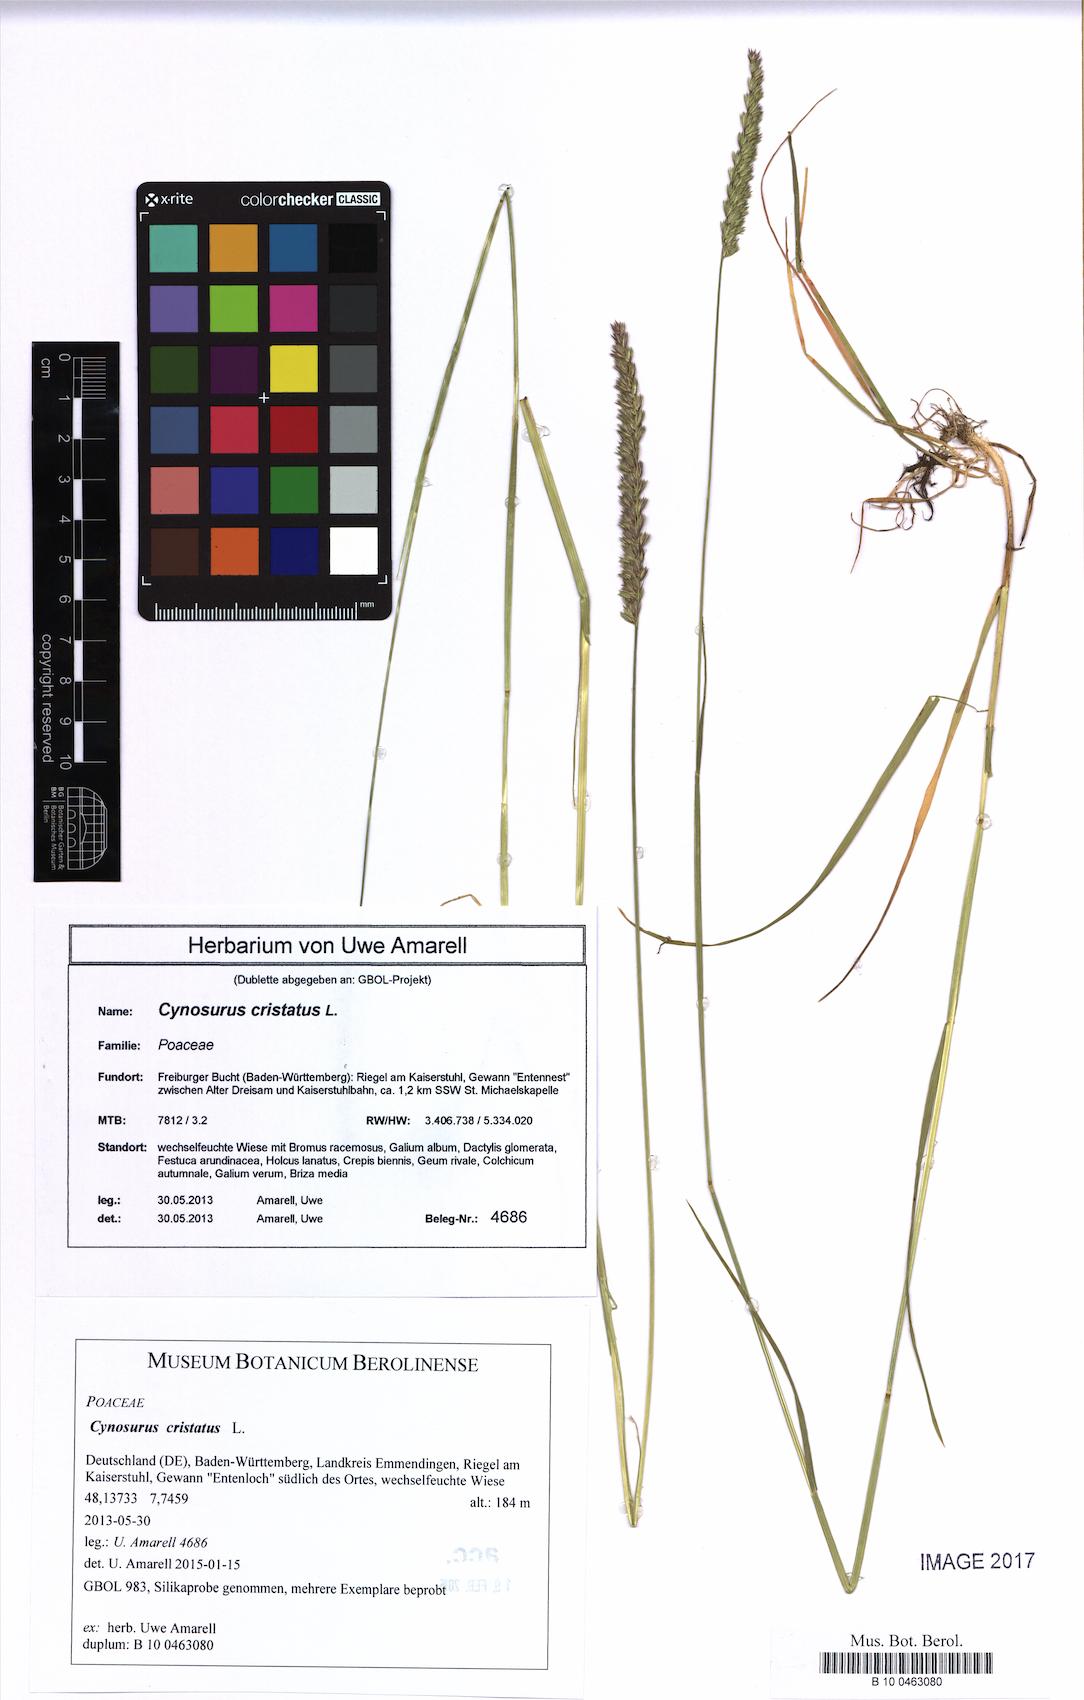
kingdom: Plantae
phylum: Tracheophyta
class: Liliopsida
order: Poales
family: Poaceae
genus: Cynosurus
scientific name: Cynosurus cristatus
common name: Crested dog's-tail
